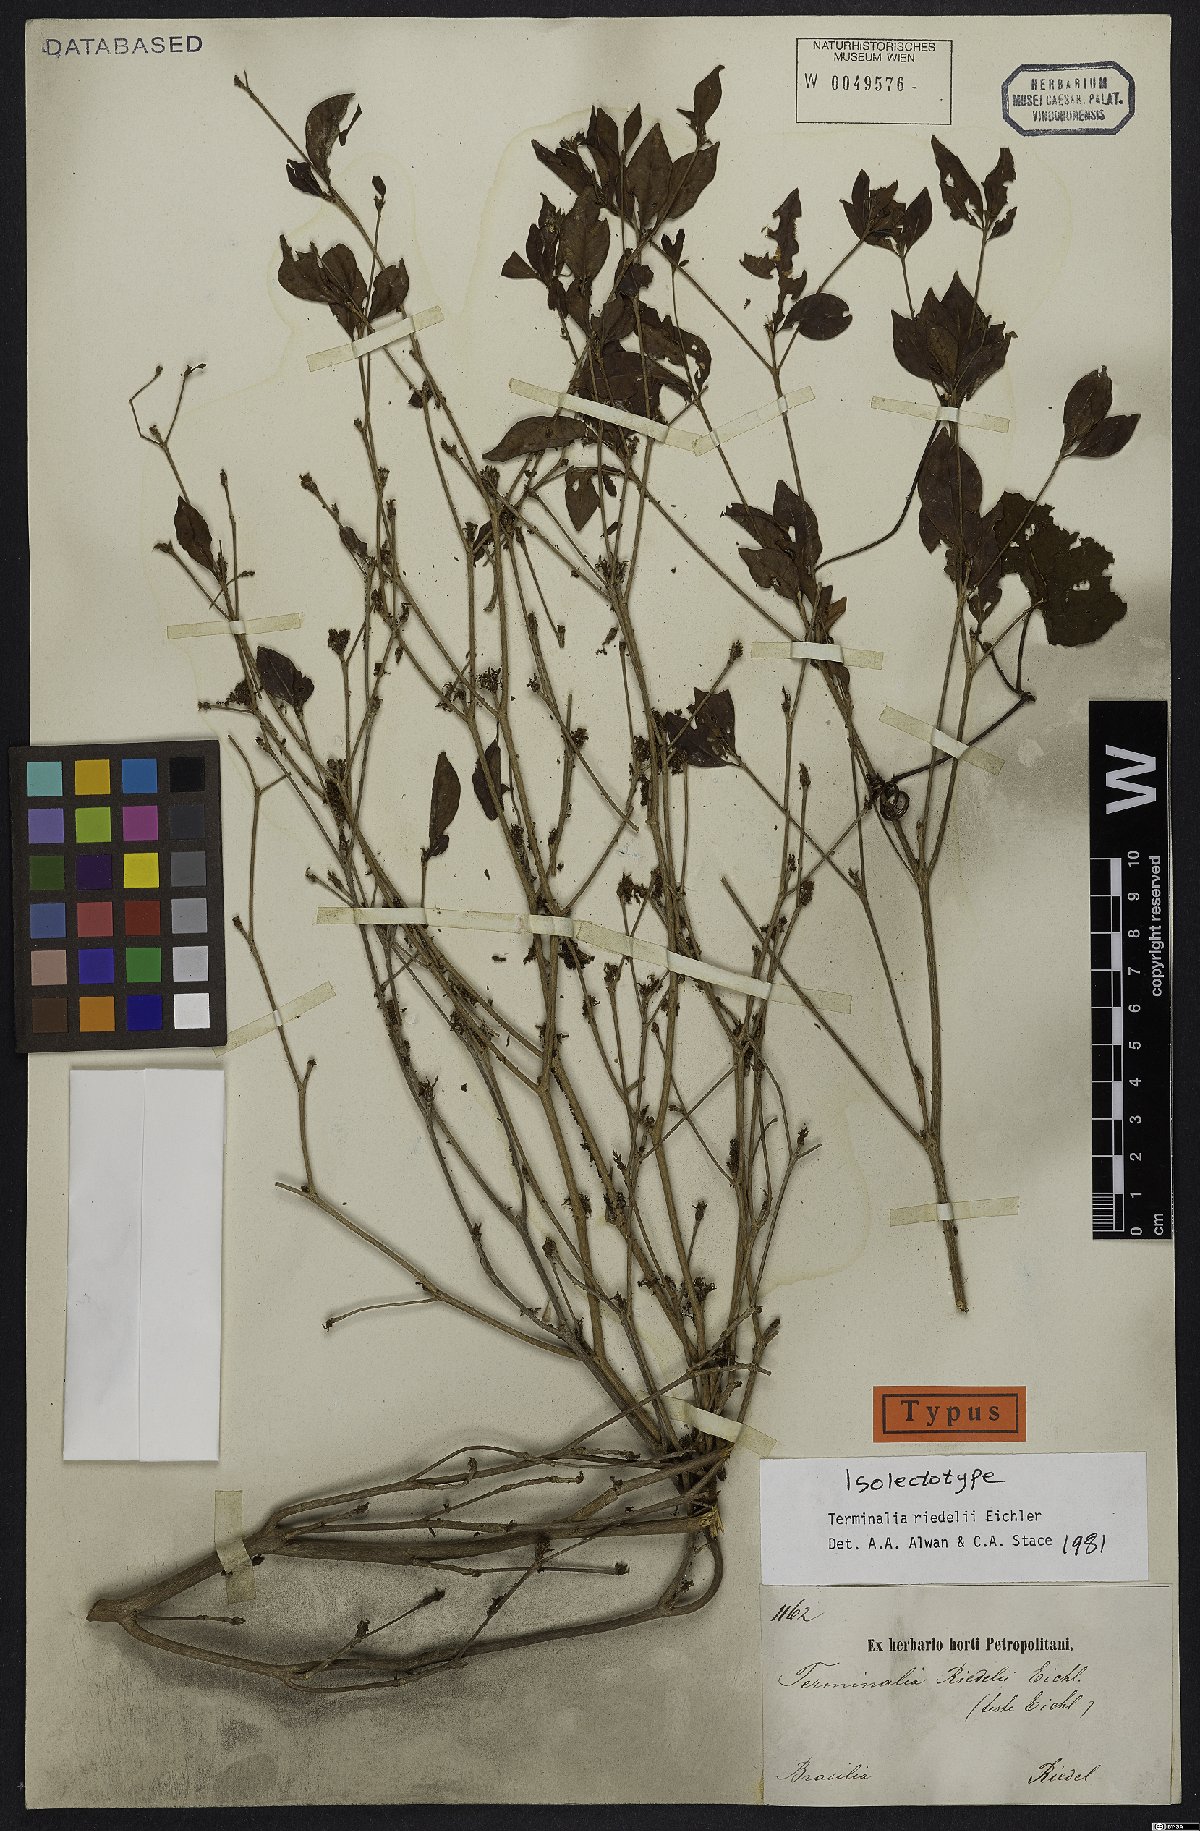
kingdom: Plantae
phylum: Tracheophyta
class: Magnoliopsida
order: Myrtales
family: Combretaceae
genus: Terminalia
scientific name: Terminalia riedelii
